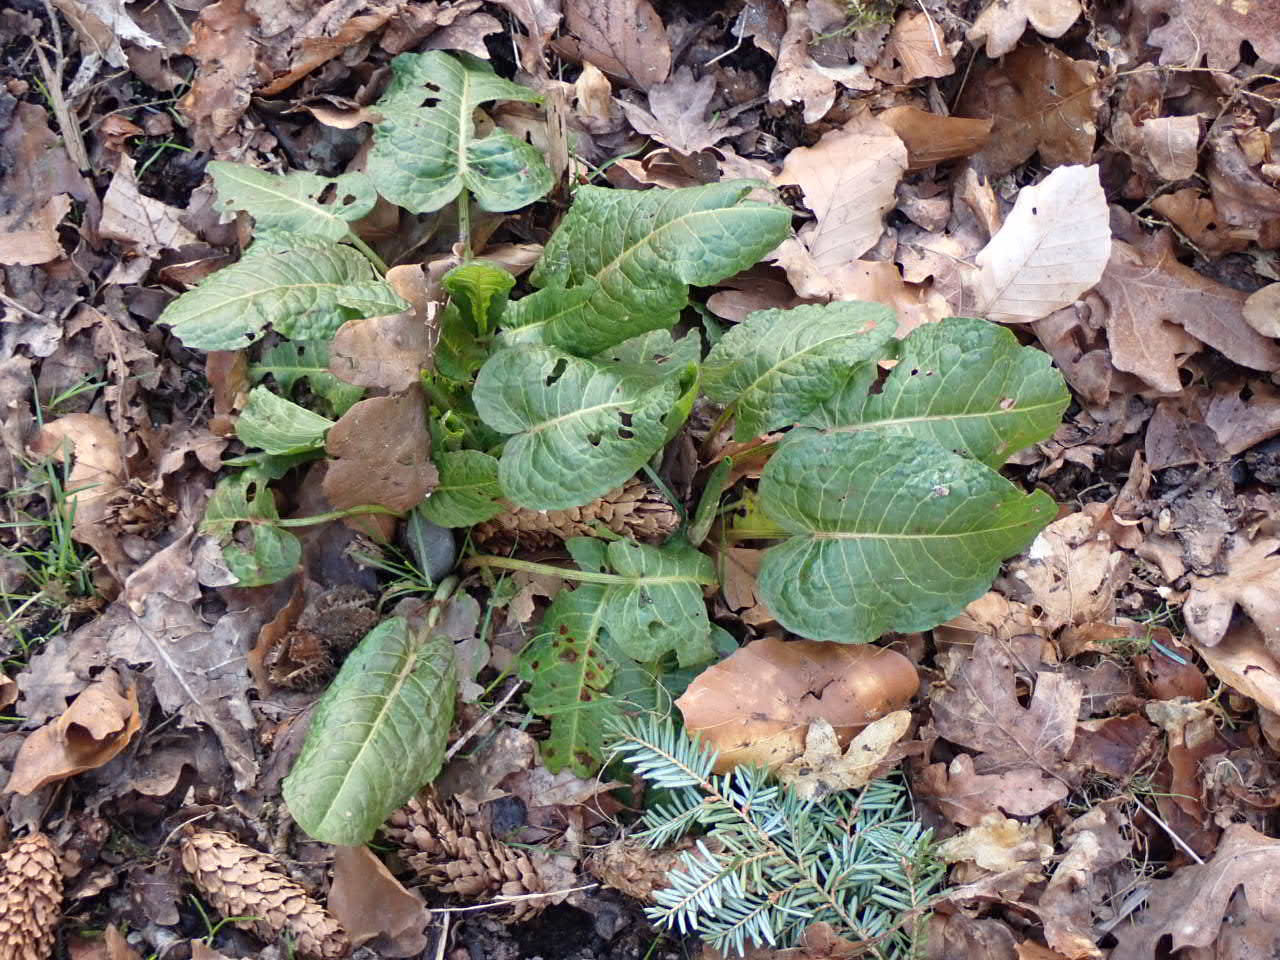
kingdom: Plantae
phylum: Tracheophyta
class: Magnoliopsida
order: Caryophyllales
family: Polygonaceae
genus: Rumex
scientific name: Rumex obtusifolius
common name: Butbladet skræppe
